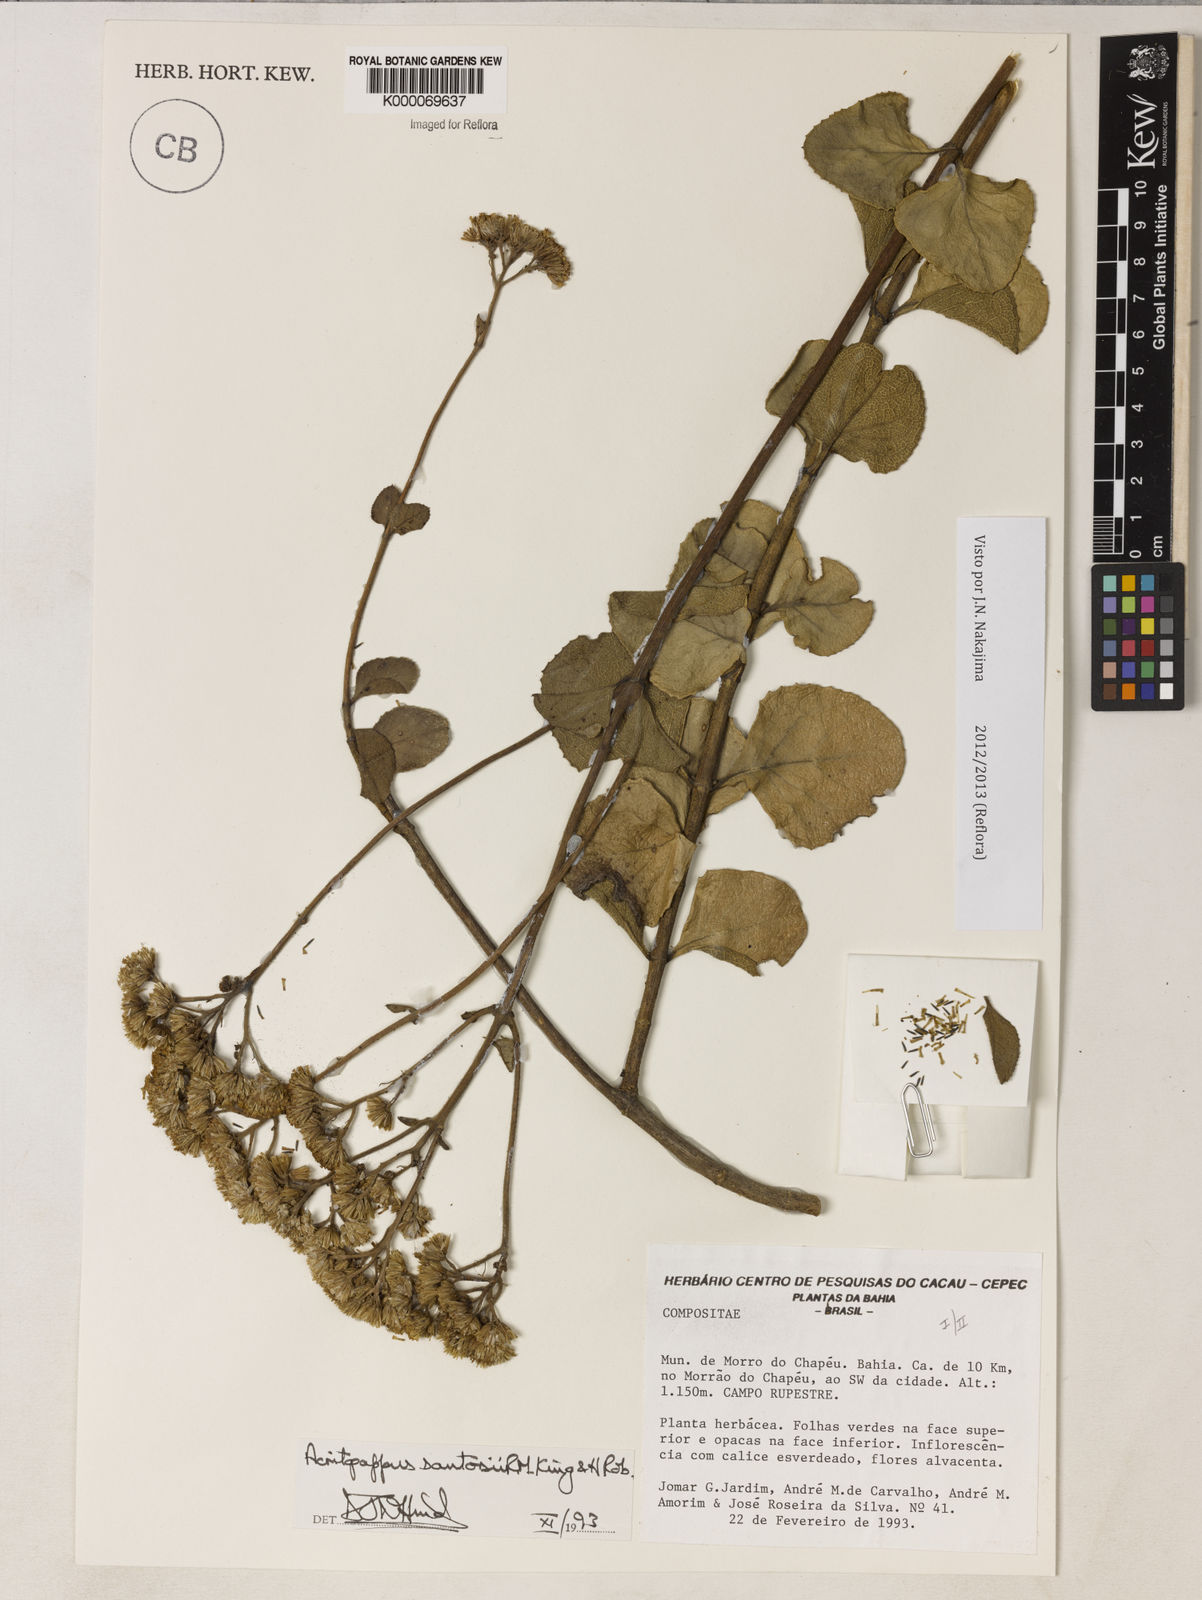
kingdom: Plantae
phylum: Tracheophyta
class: Magnoliopsida
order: Asterales
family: Asteraceae
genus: Acritopappus
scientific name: Acritopappus santosii
